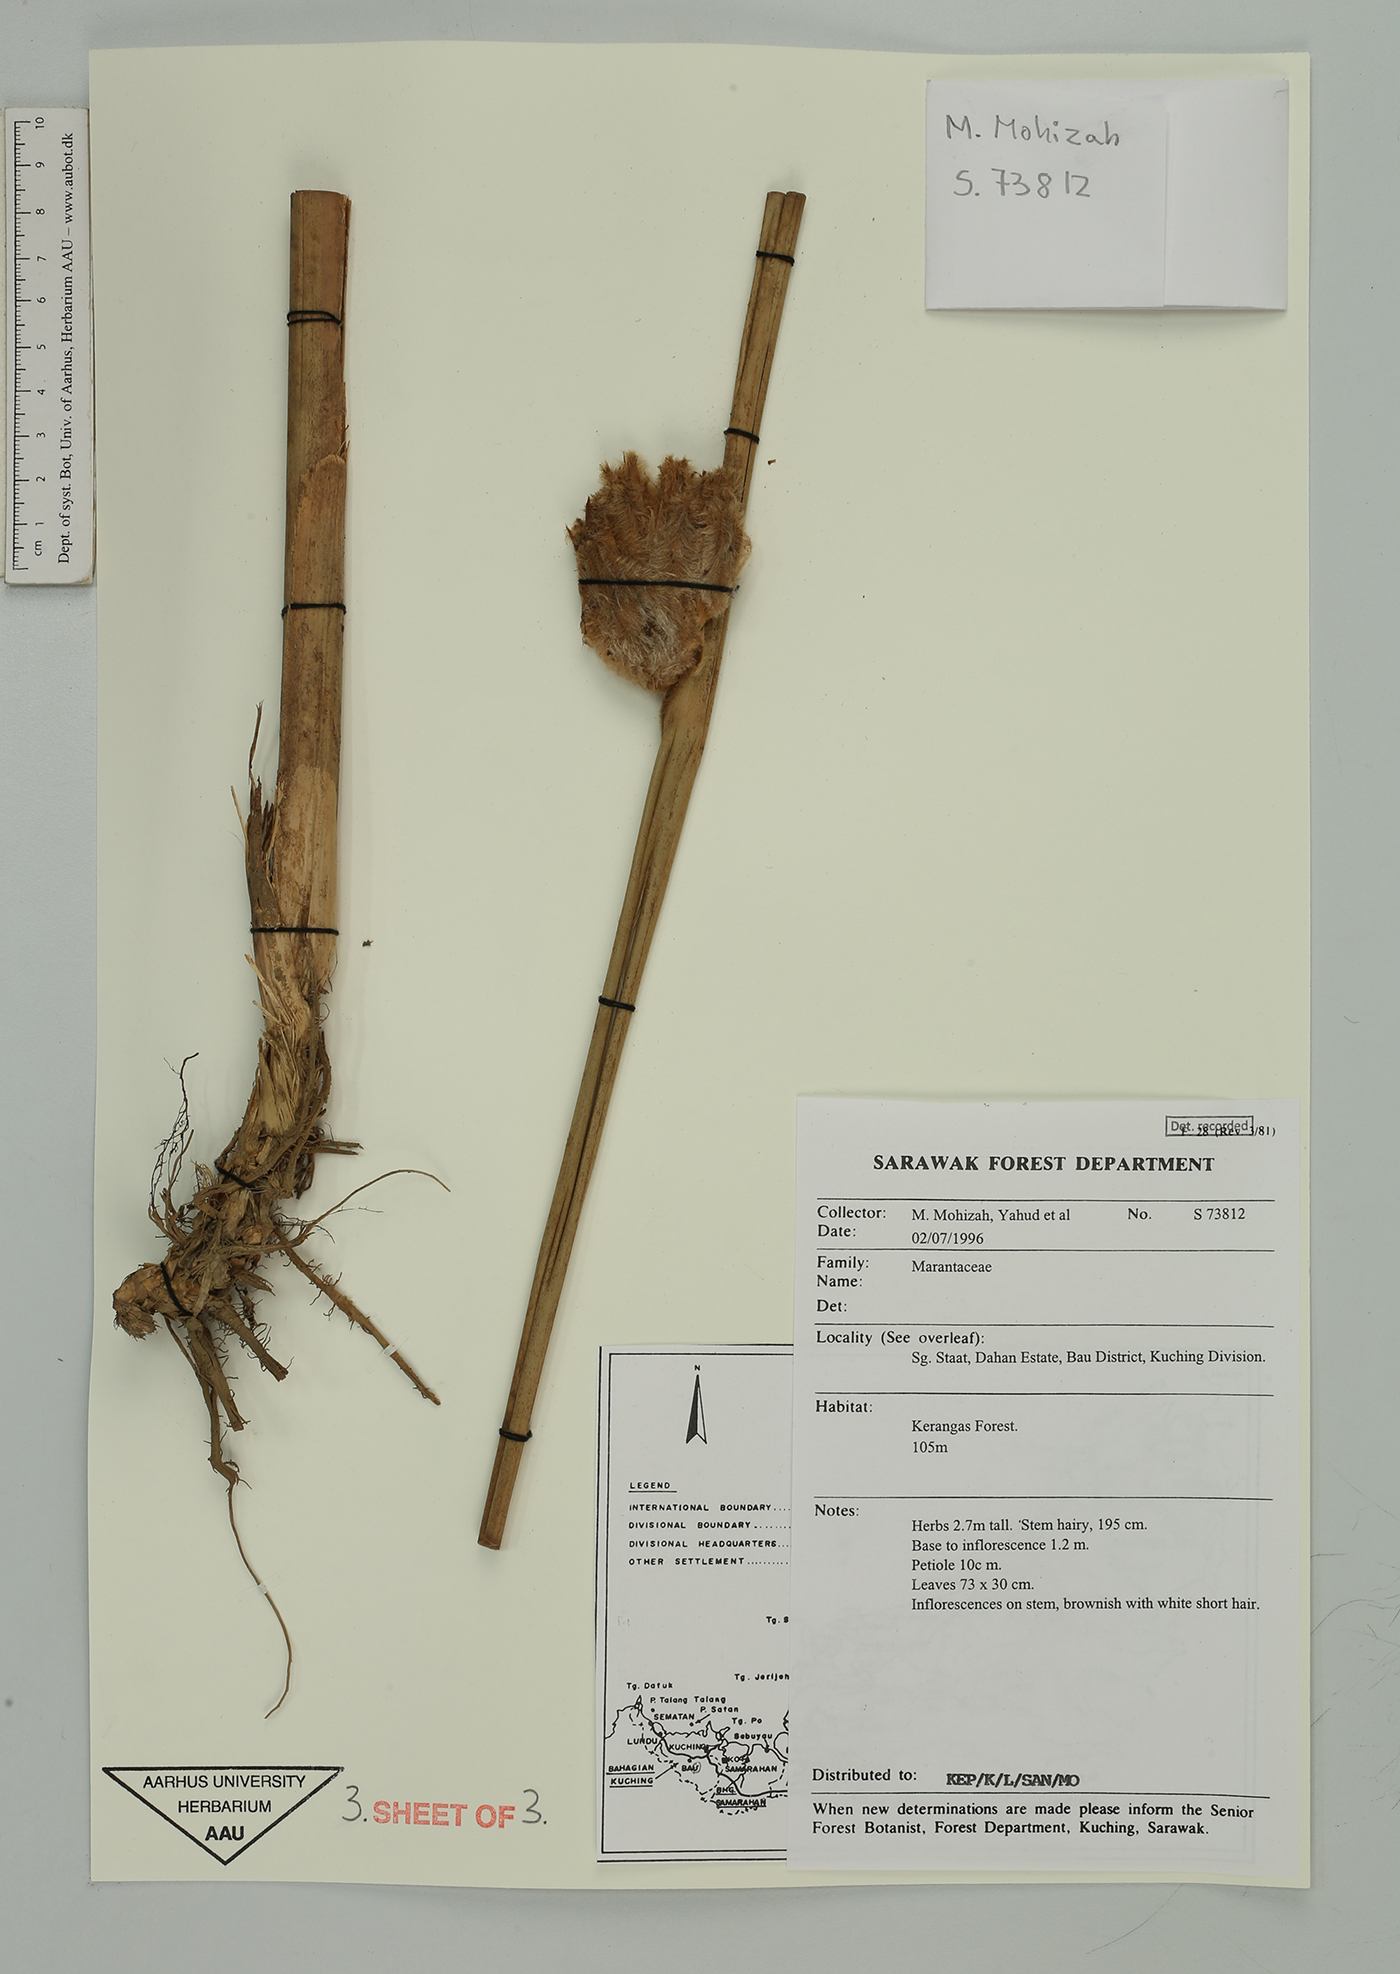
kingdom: Plantae
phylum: Tracheophyta
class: Liliopsida
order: Zingiberales
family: Marantaceae
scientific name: Marantaceae
